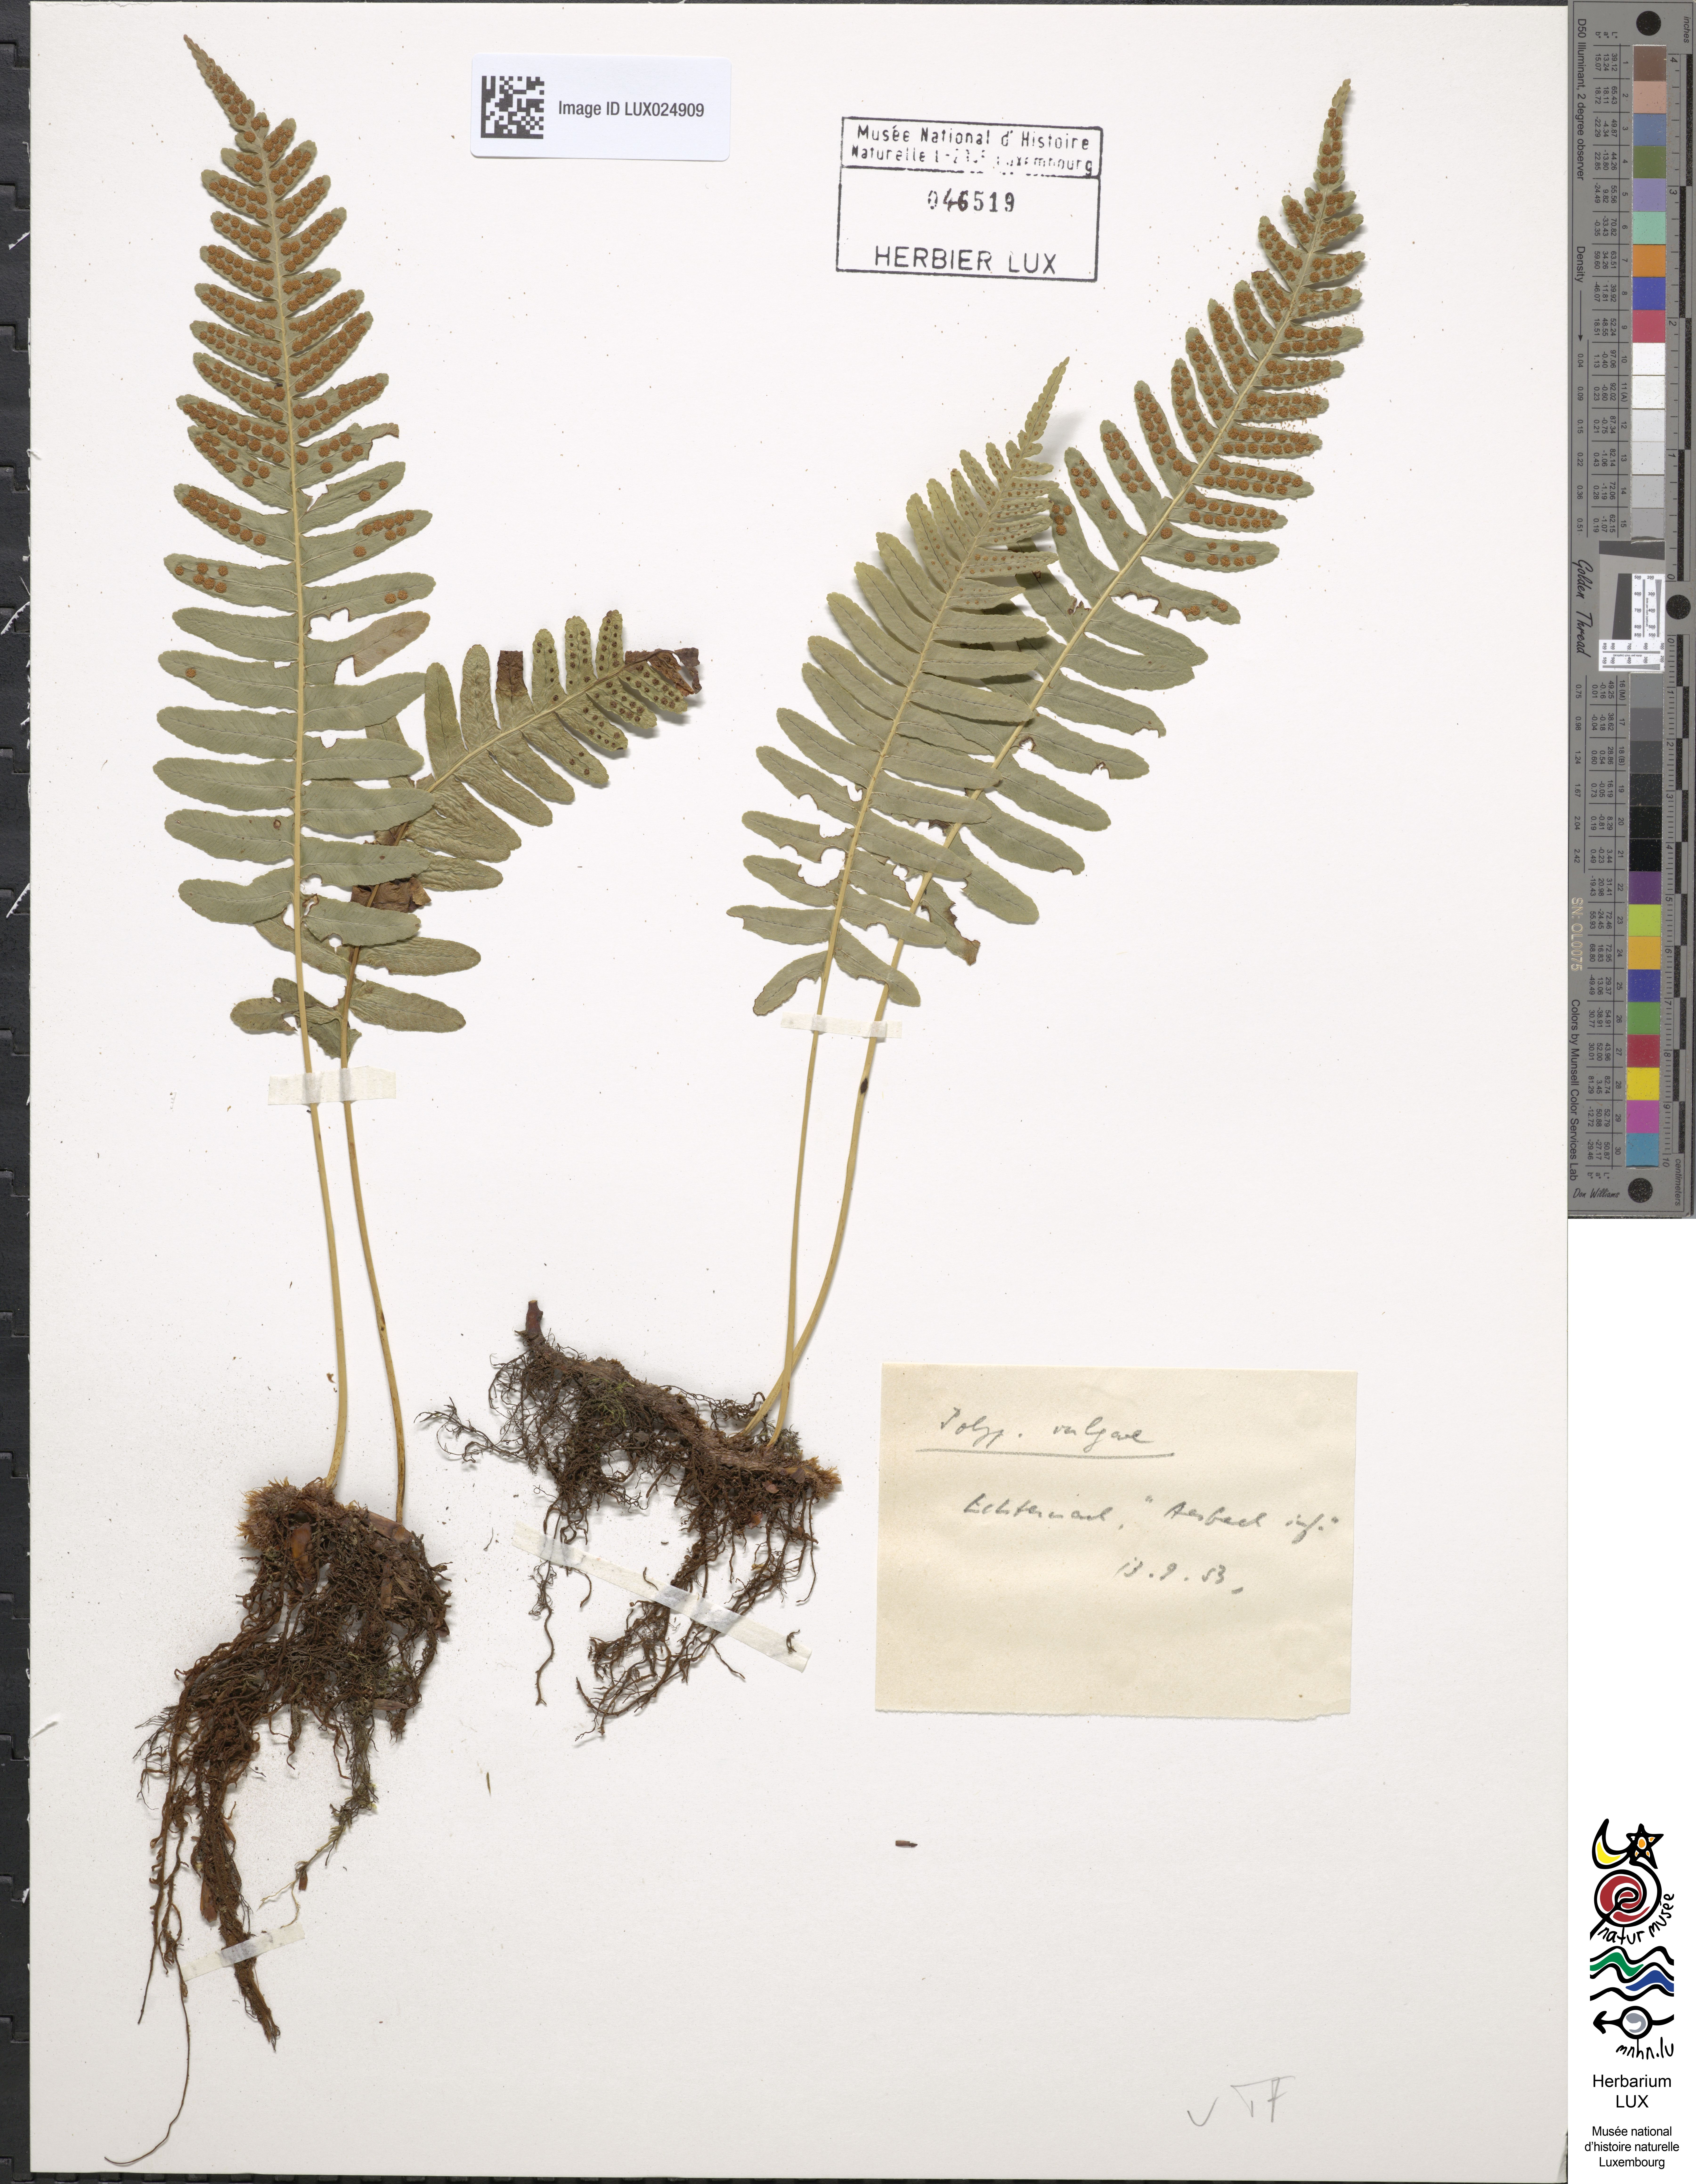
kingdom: Plantae
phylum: Tracheophyta
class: Polypodiopsida
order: Polypodiales
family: Polypodiaceae
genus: Polypodium
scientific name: Polypodium vulgare
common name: Common polypody
